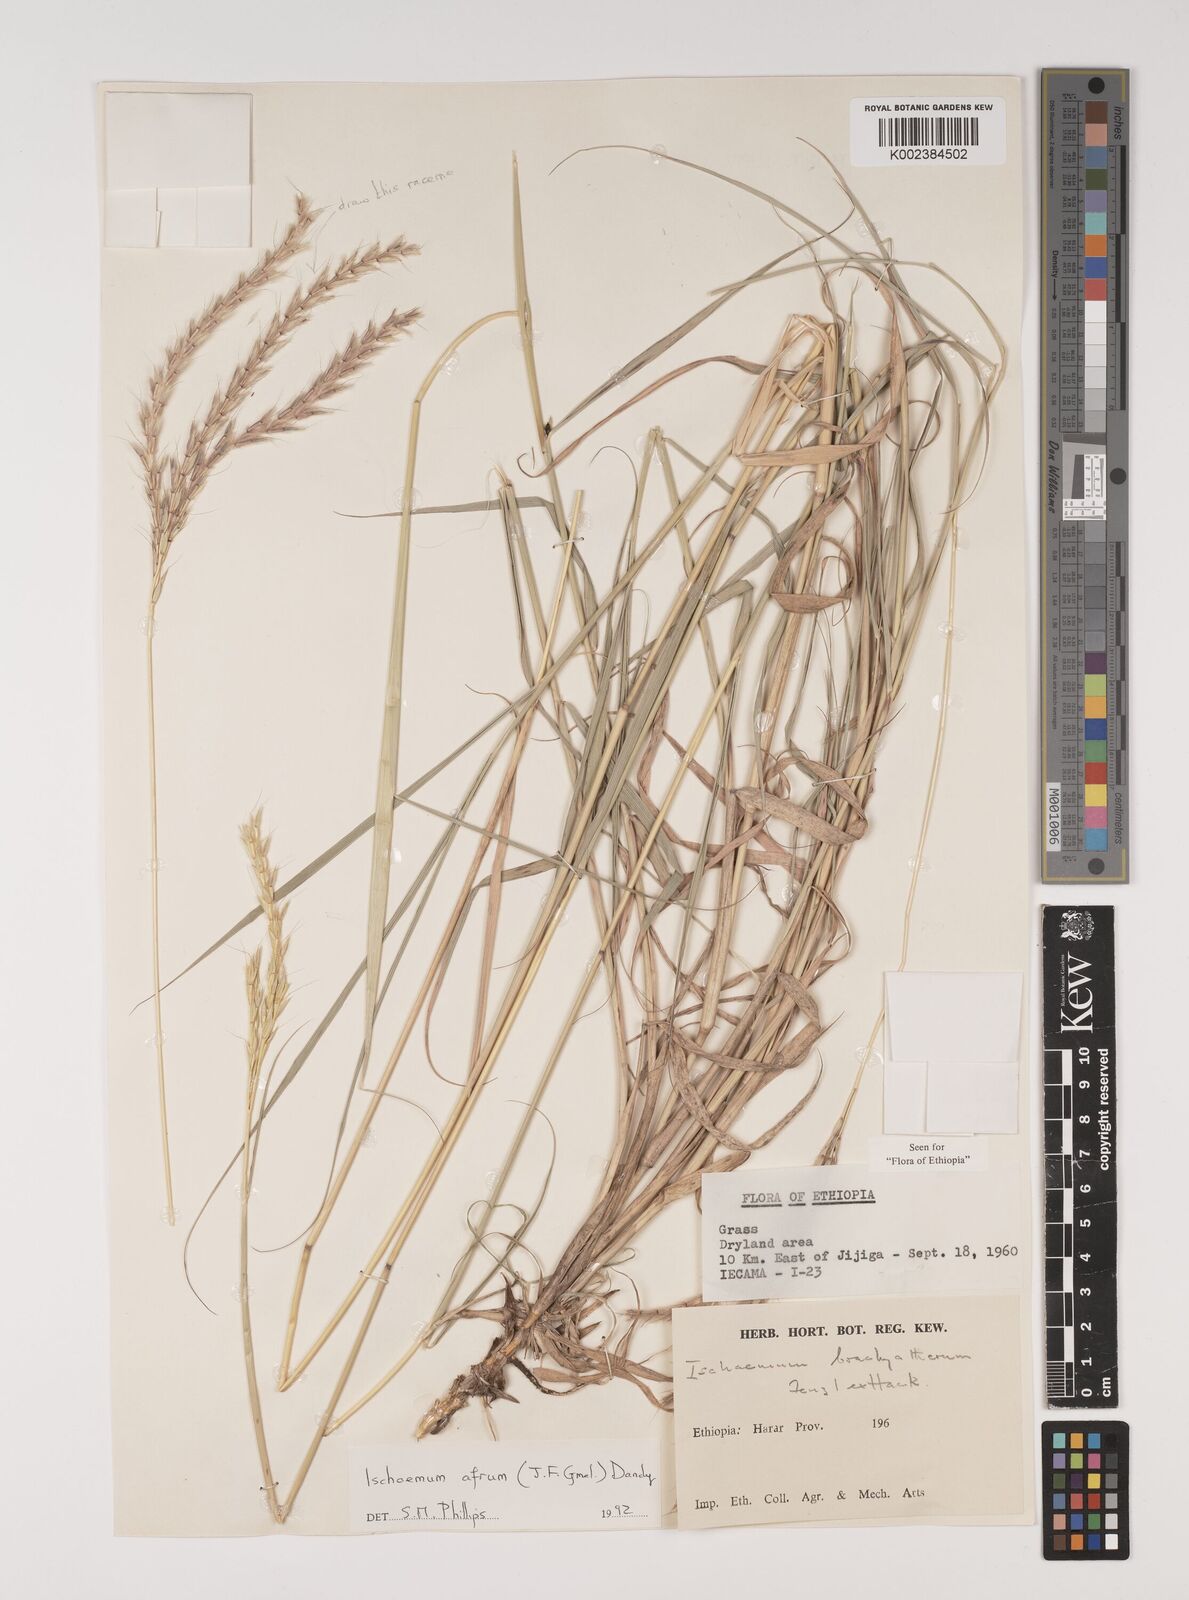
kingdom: Plantae
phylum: Tracheophyta
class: Liliopsida
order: Poales
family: Poaceae
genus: Ischaemum
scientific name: Ischaemum afrum
